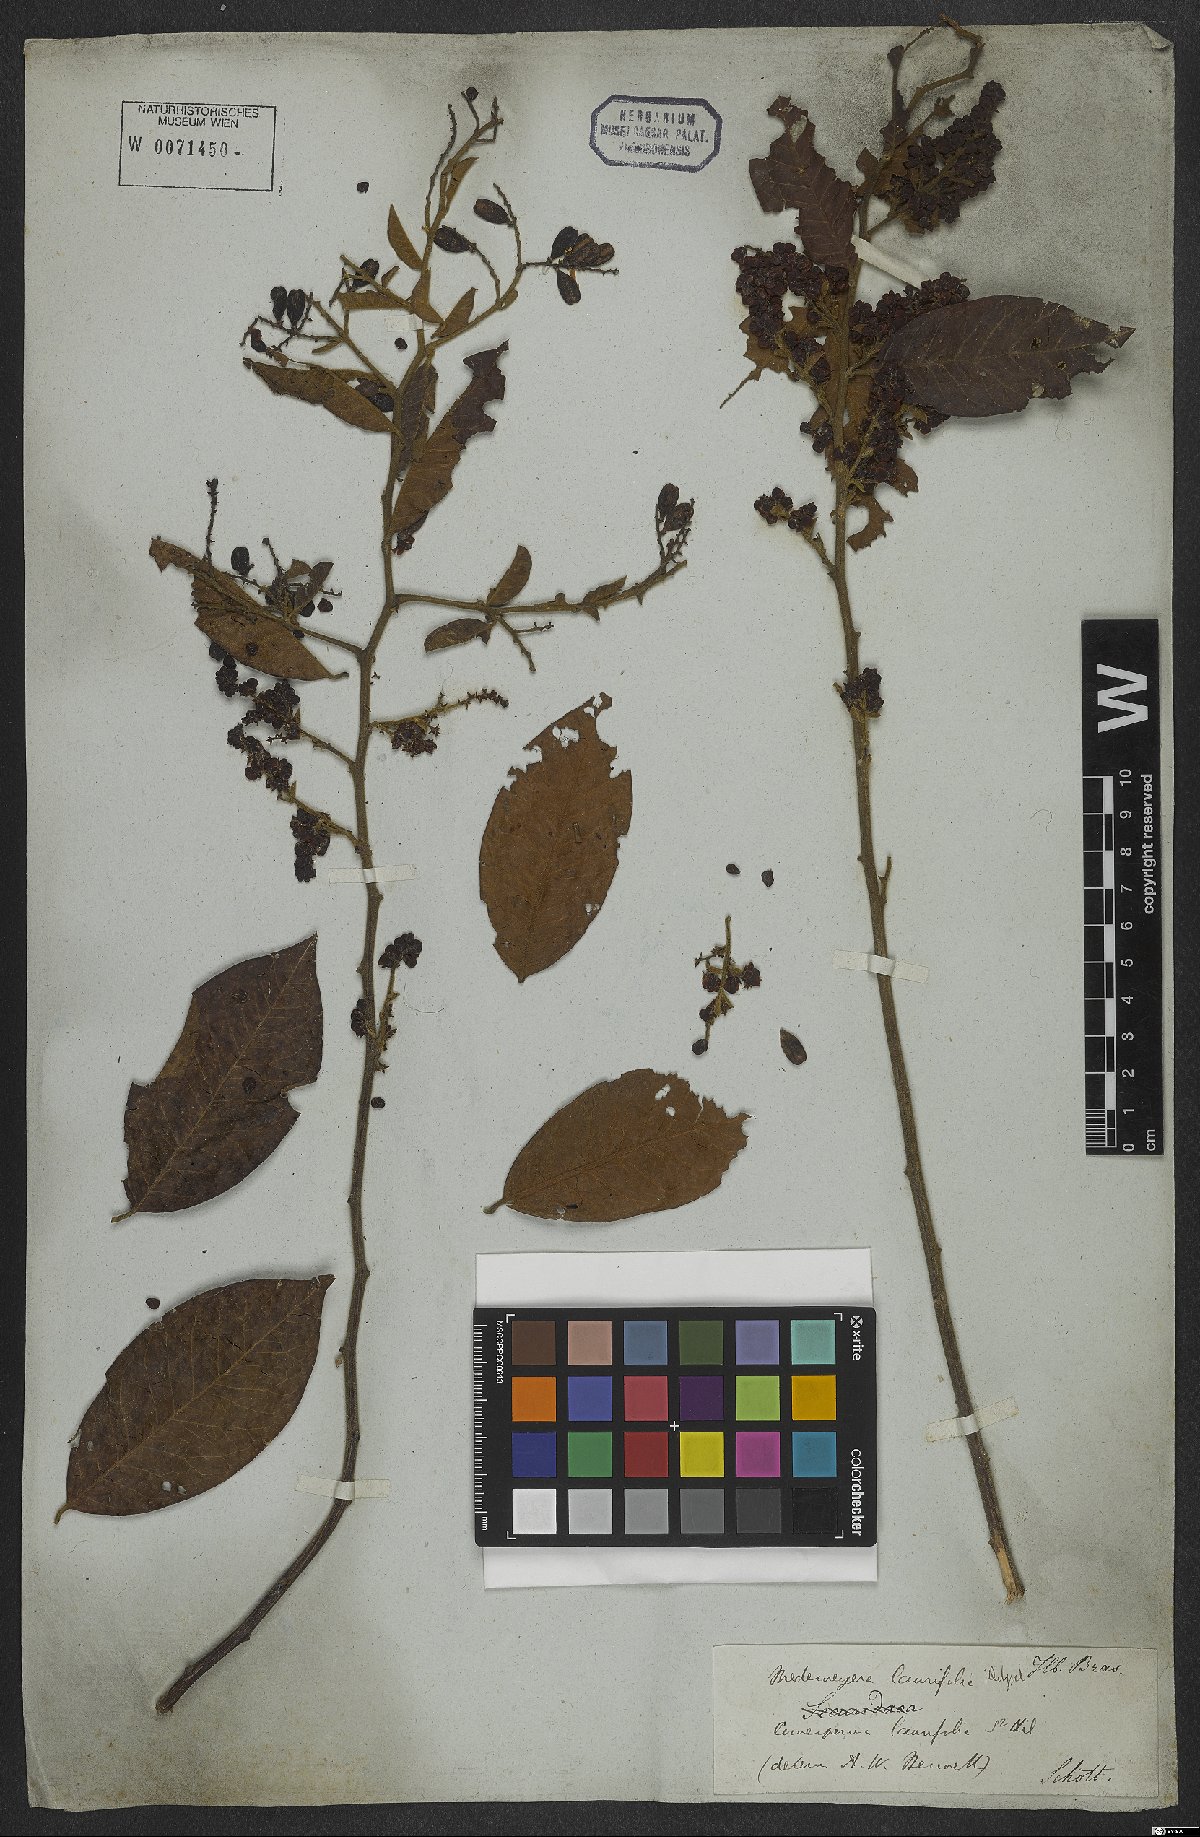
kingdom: Plantae
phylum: Tracheophyta
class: Magnoliopsida
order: Fabales
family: Polygalaceae
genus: Bredemeyera
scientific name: Bredemeyera laurifolia
